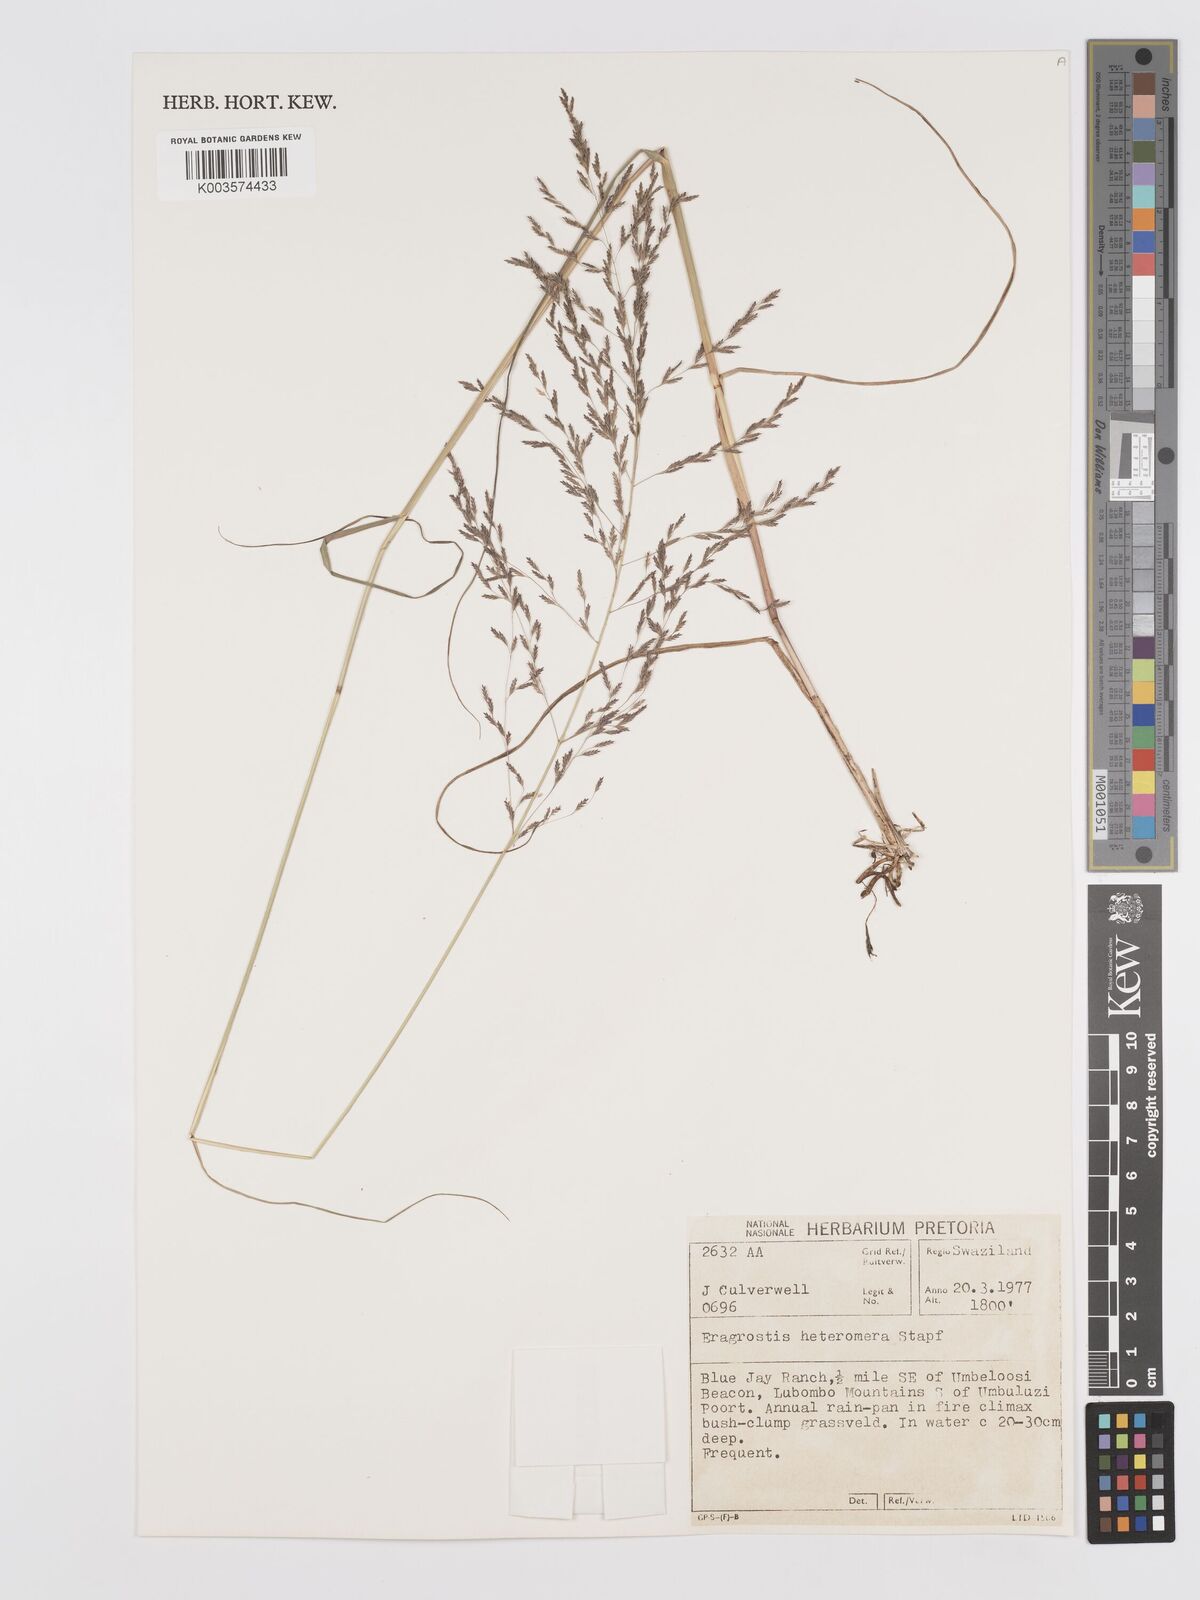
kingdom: Plantae
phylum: Tracheophyta
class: Liliopsida
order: Poales
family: Poaceae
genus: Eragrostis
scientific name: Eragrostis heteromera
